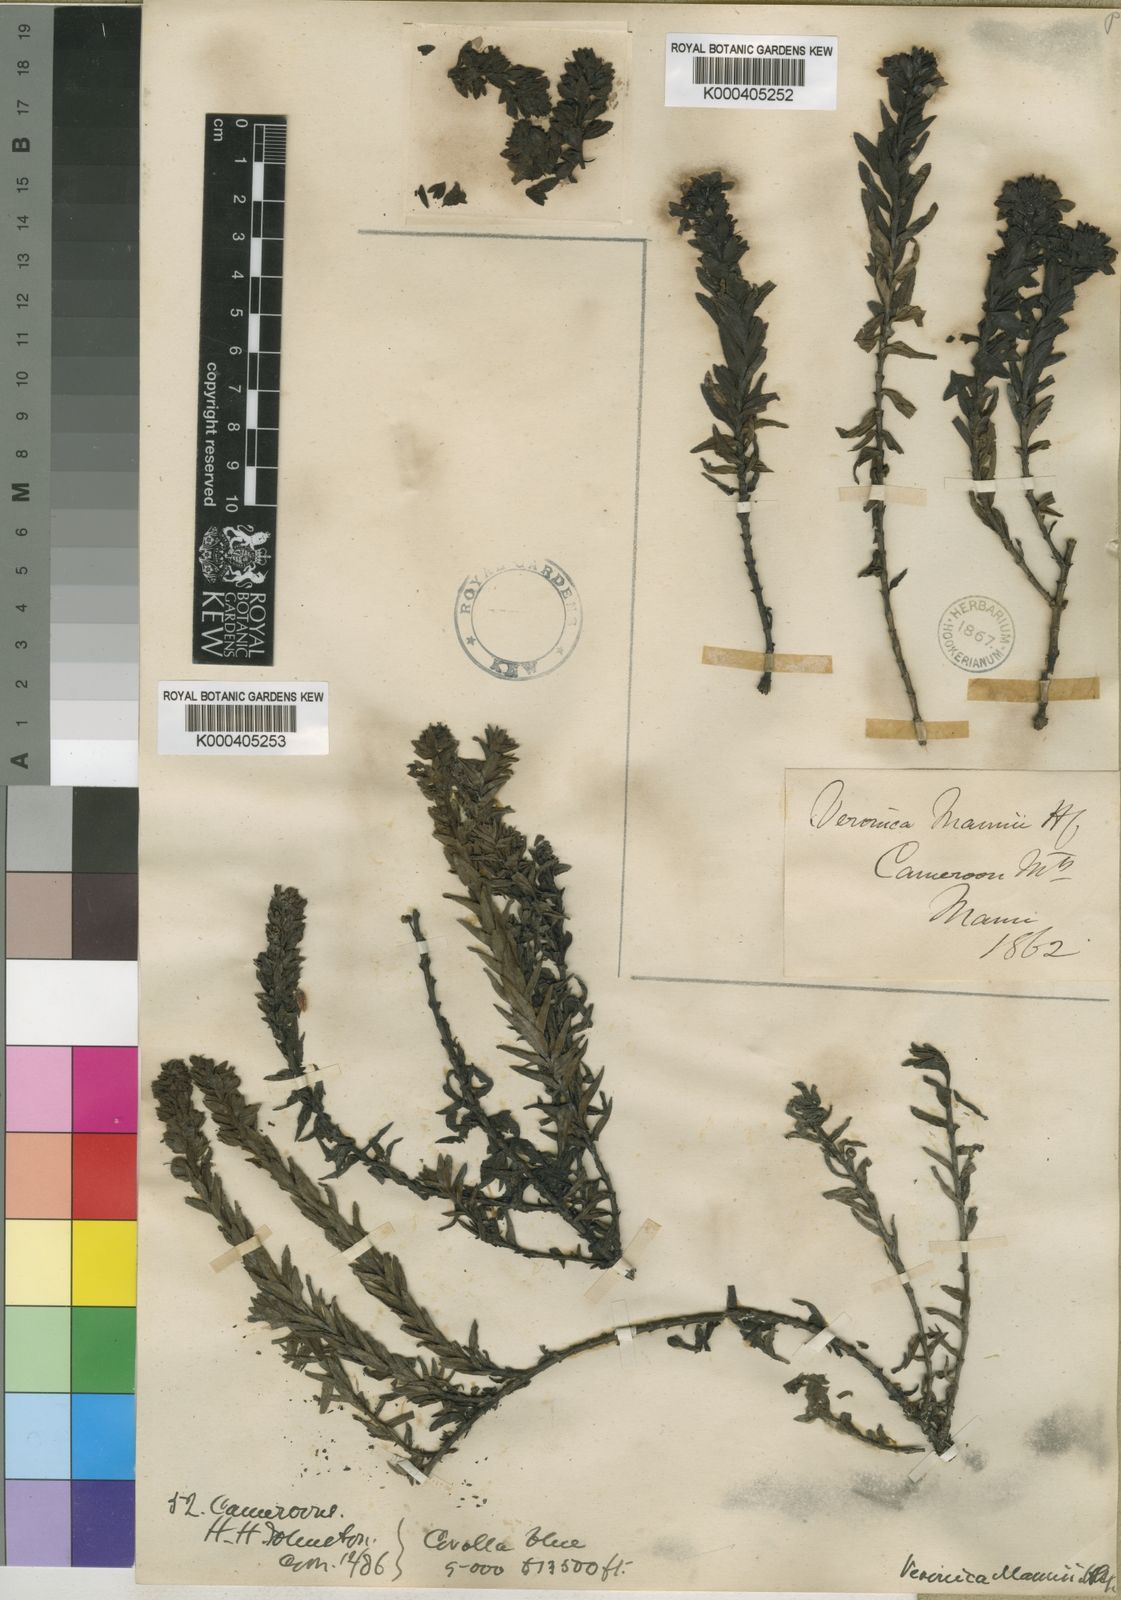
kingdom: Plantae
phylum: Tracheophyta
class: Magnoliopsida
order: Lamiales
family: Plantaginaceae
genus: Veronica
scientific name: Veronica mannii
